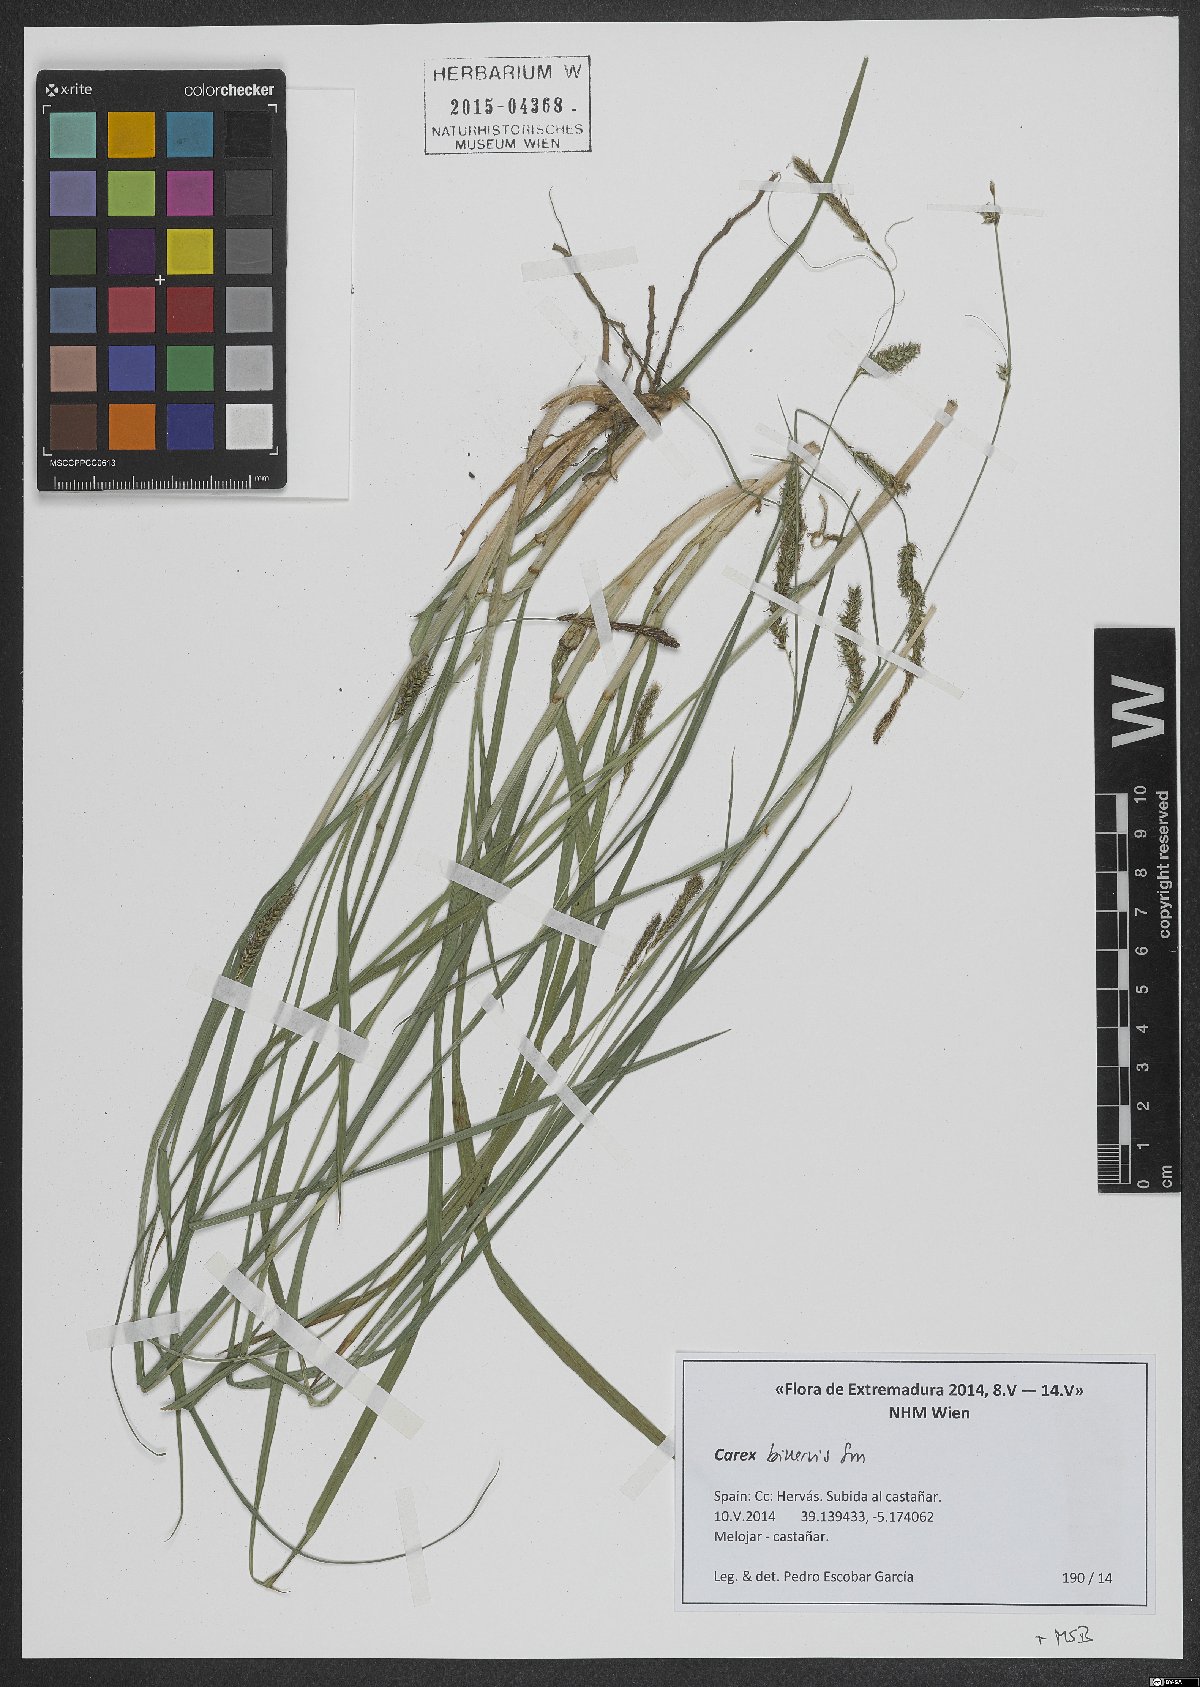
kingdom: Plantae
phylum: Tracheophyta
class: Liliopsida
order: Poales
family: Cyperaceae
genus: Carex
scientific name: Carex binervis
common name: Green-ribbed sedge
